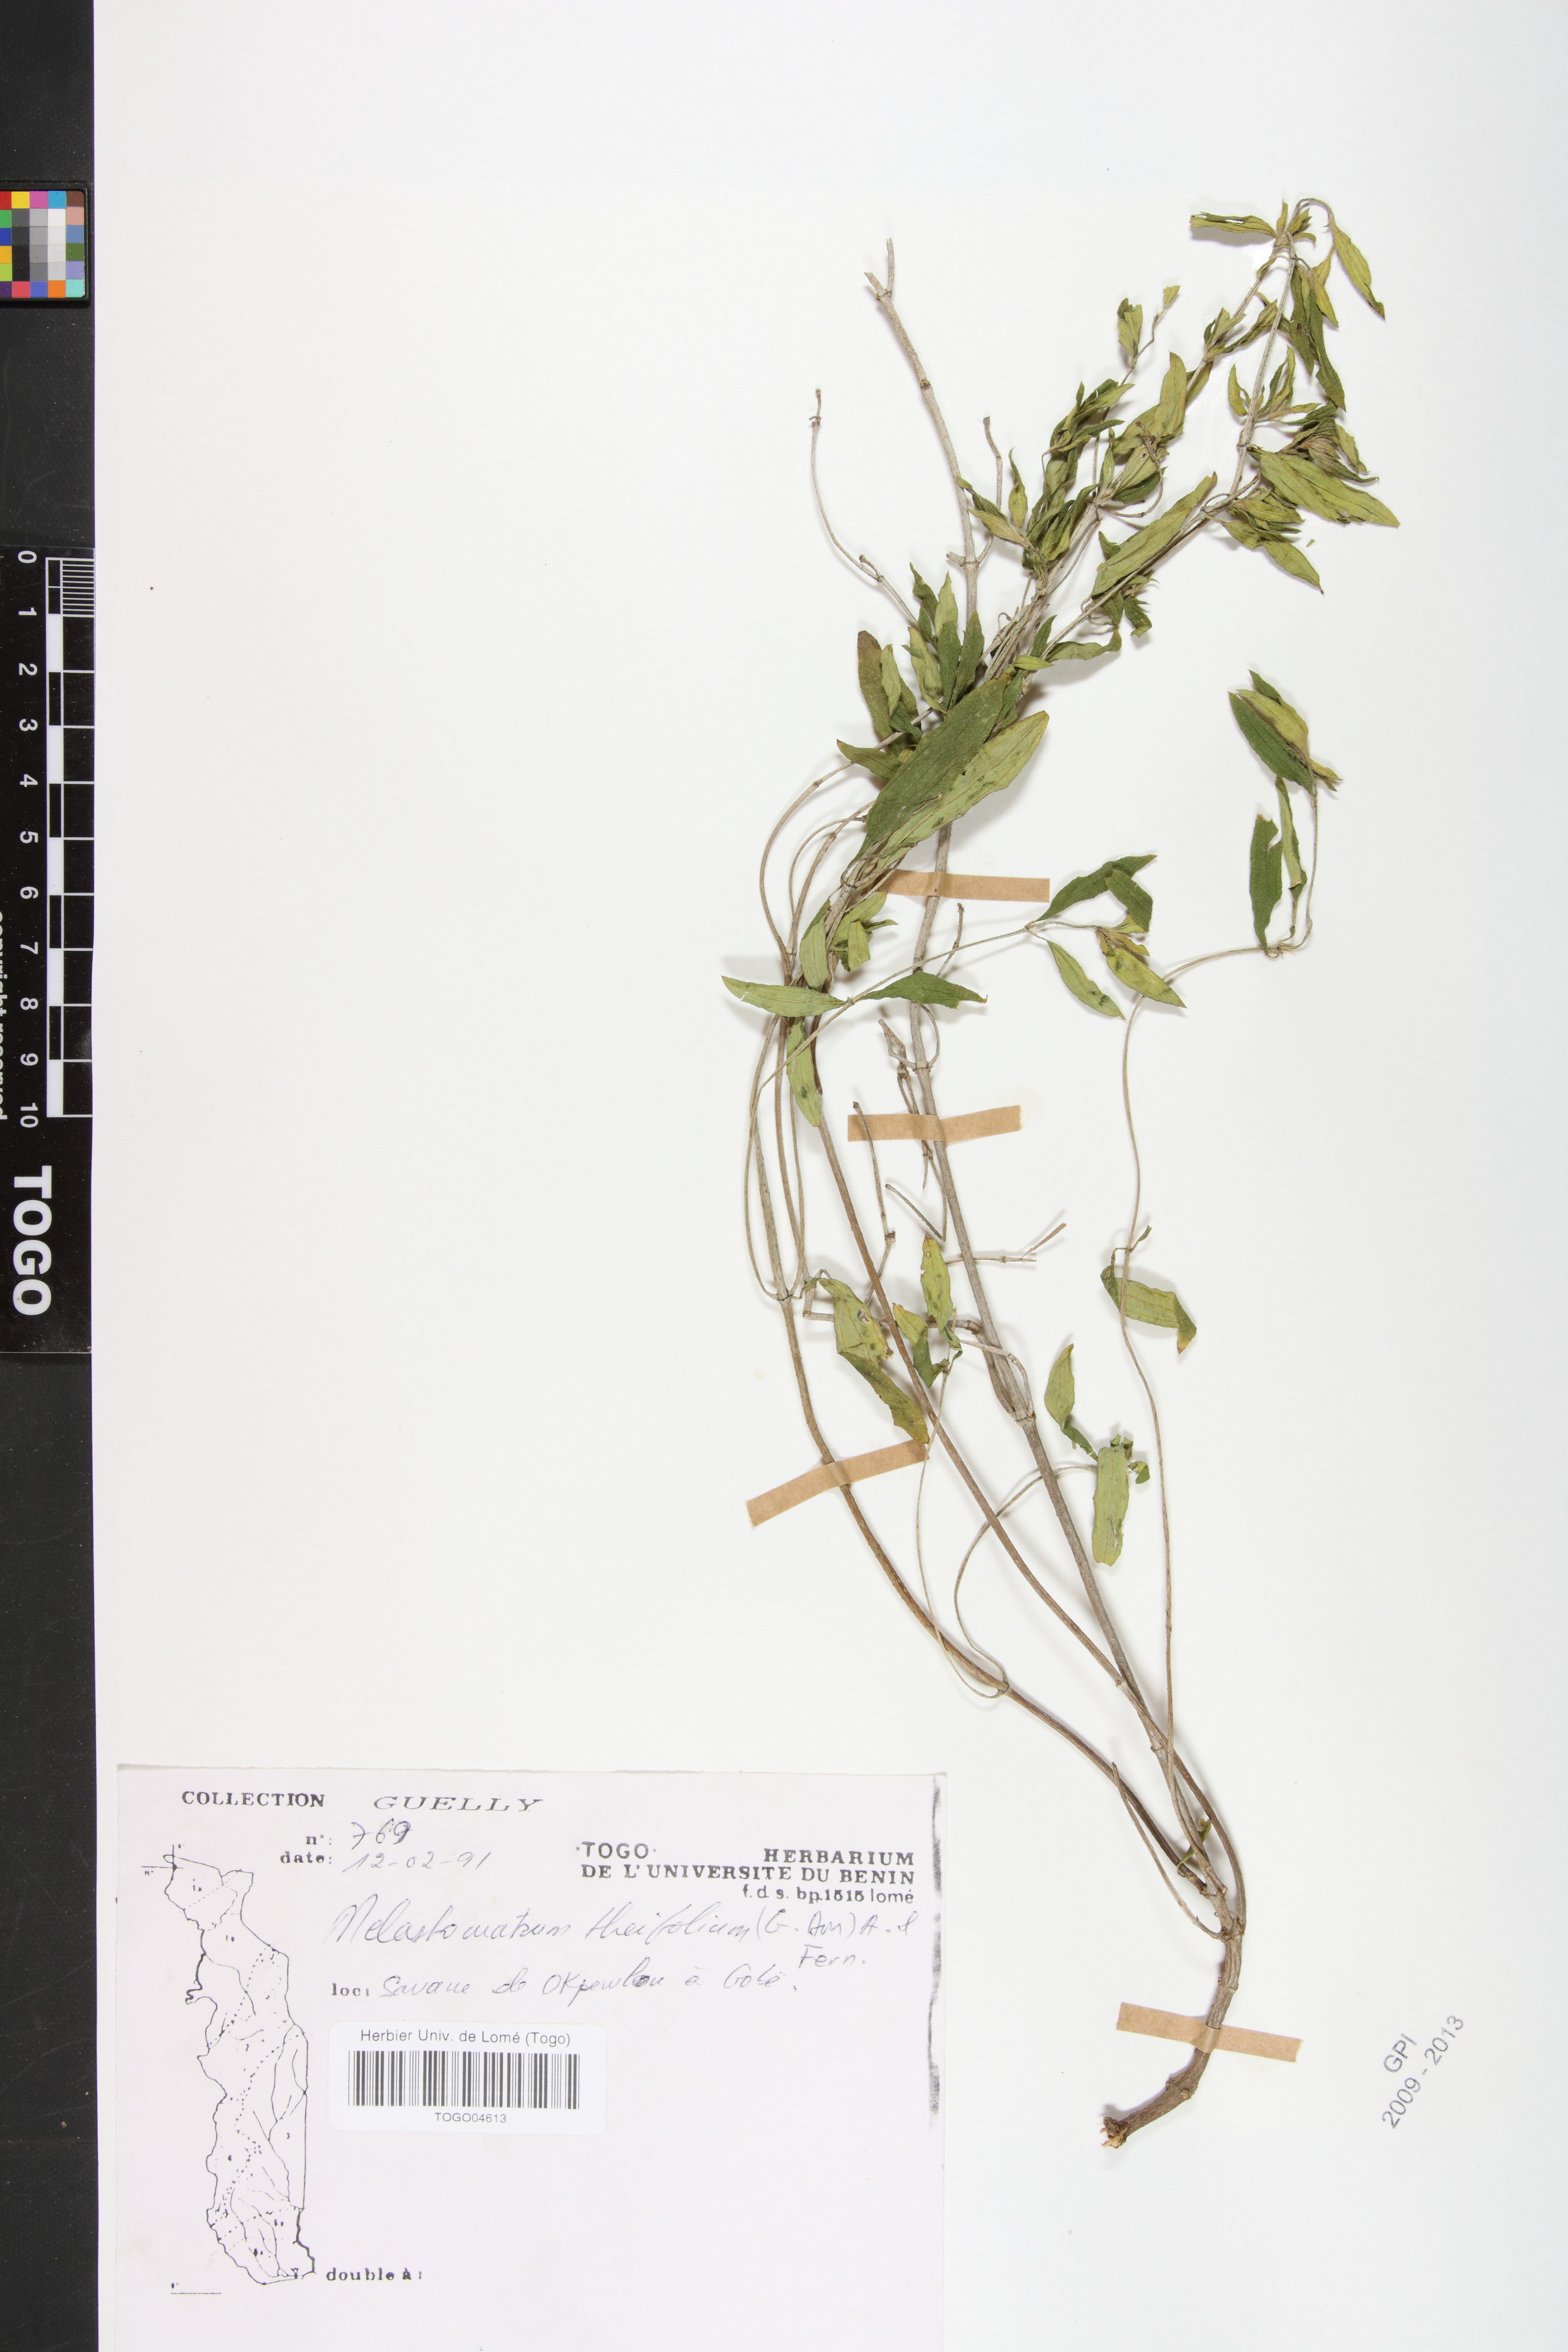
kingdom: Plantae
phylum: Tracheophyta
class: Magnoliopsida
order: Myrtales
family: Melastomataceae
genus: Melastomastrum
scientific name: Melastomastrum theifolium
